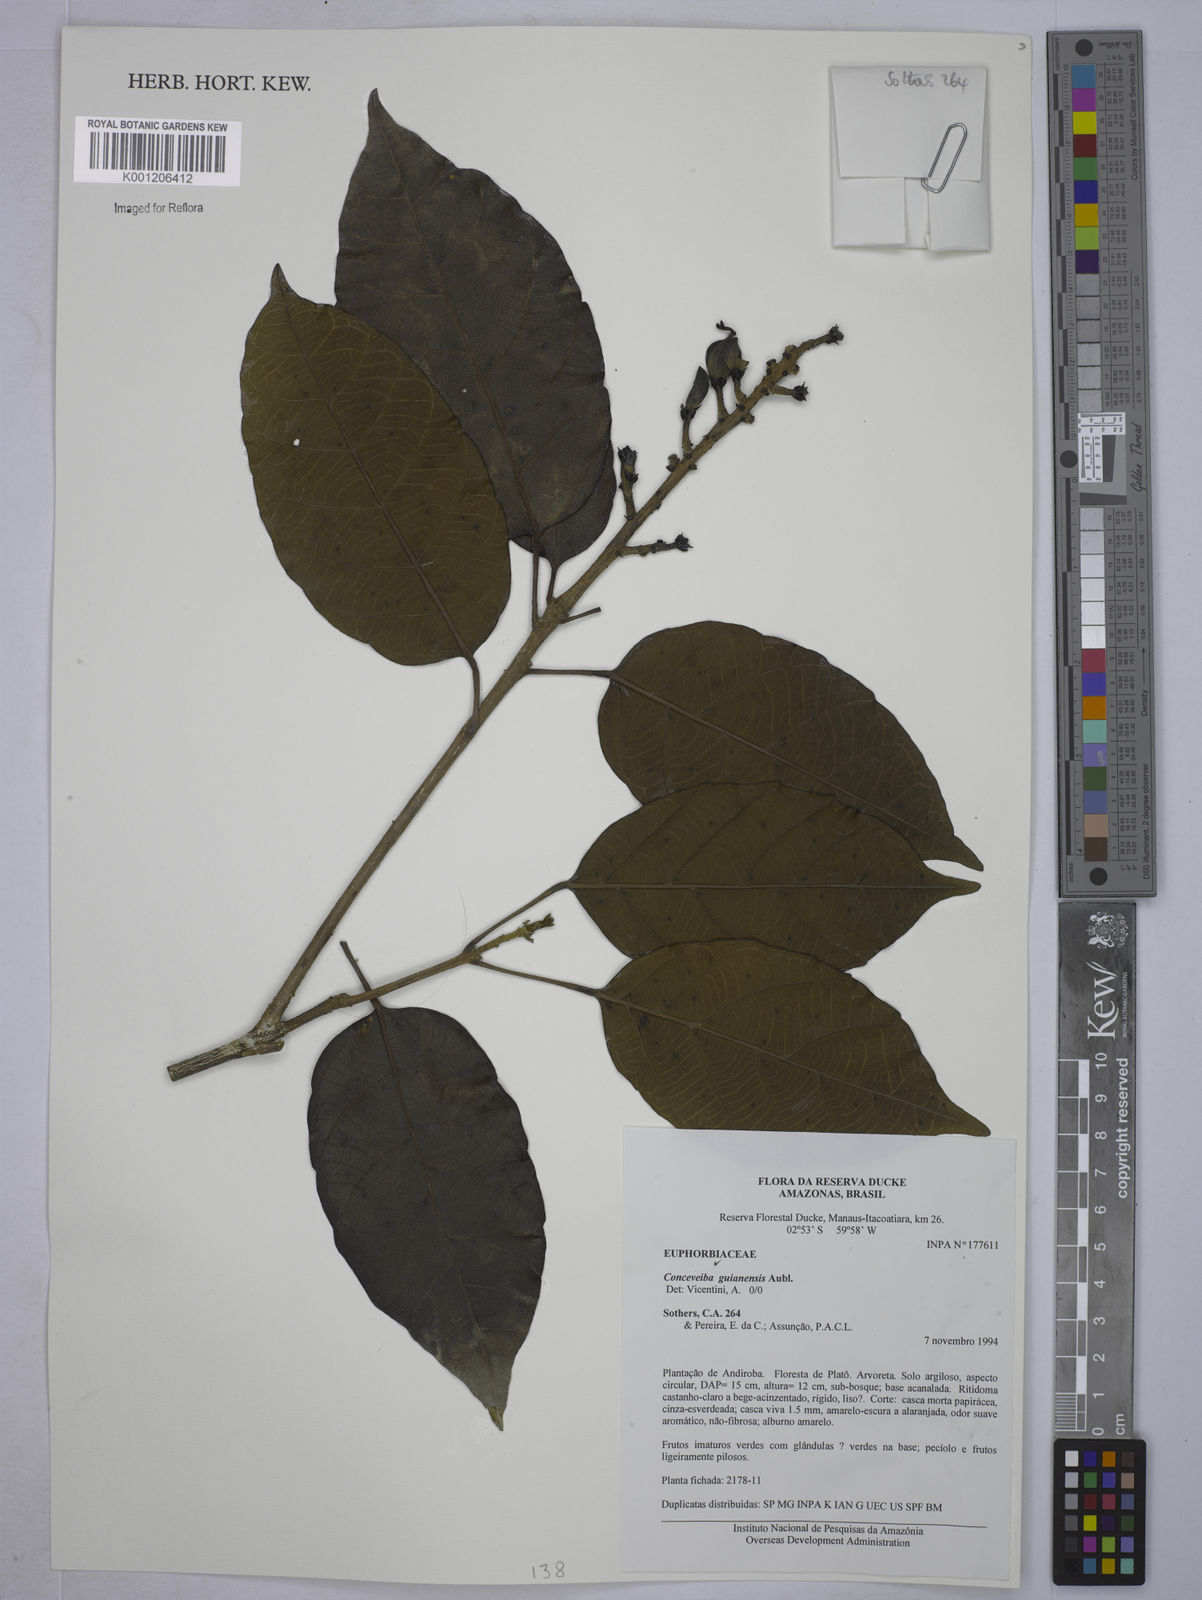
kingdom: Plantae
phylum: Tracheophyta
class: Magnoliopsida
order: Malpighiales
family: Euphorbiaceae
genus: Conceveiba
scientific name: Conceveiba guianensis
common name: Poatoru
